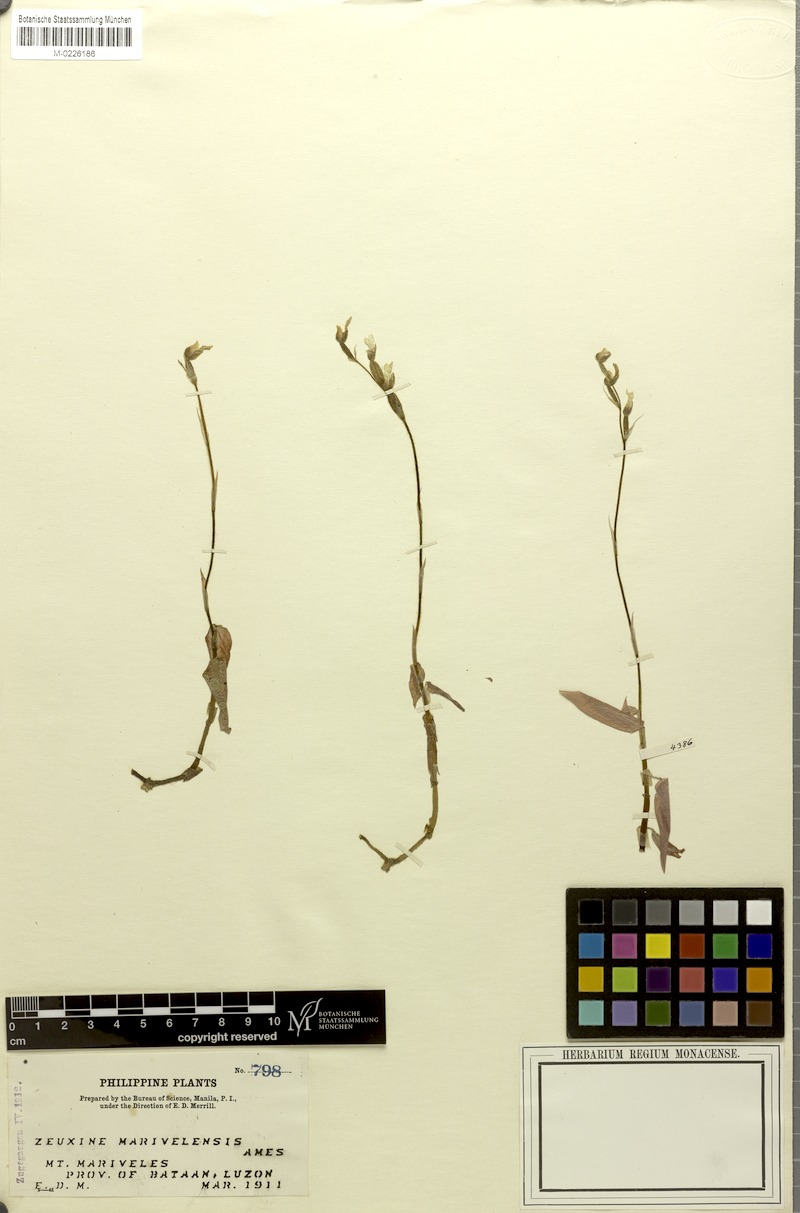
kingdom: Plantae
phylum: Tracheophyta
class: Liliopsida
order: Asparagales
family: Orchidaceae
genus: Zeuxine
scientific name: Zeuxine marivelensis
